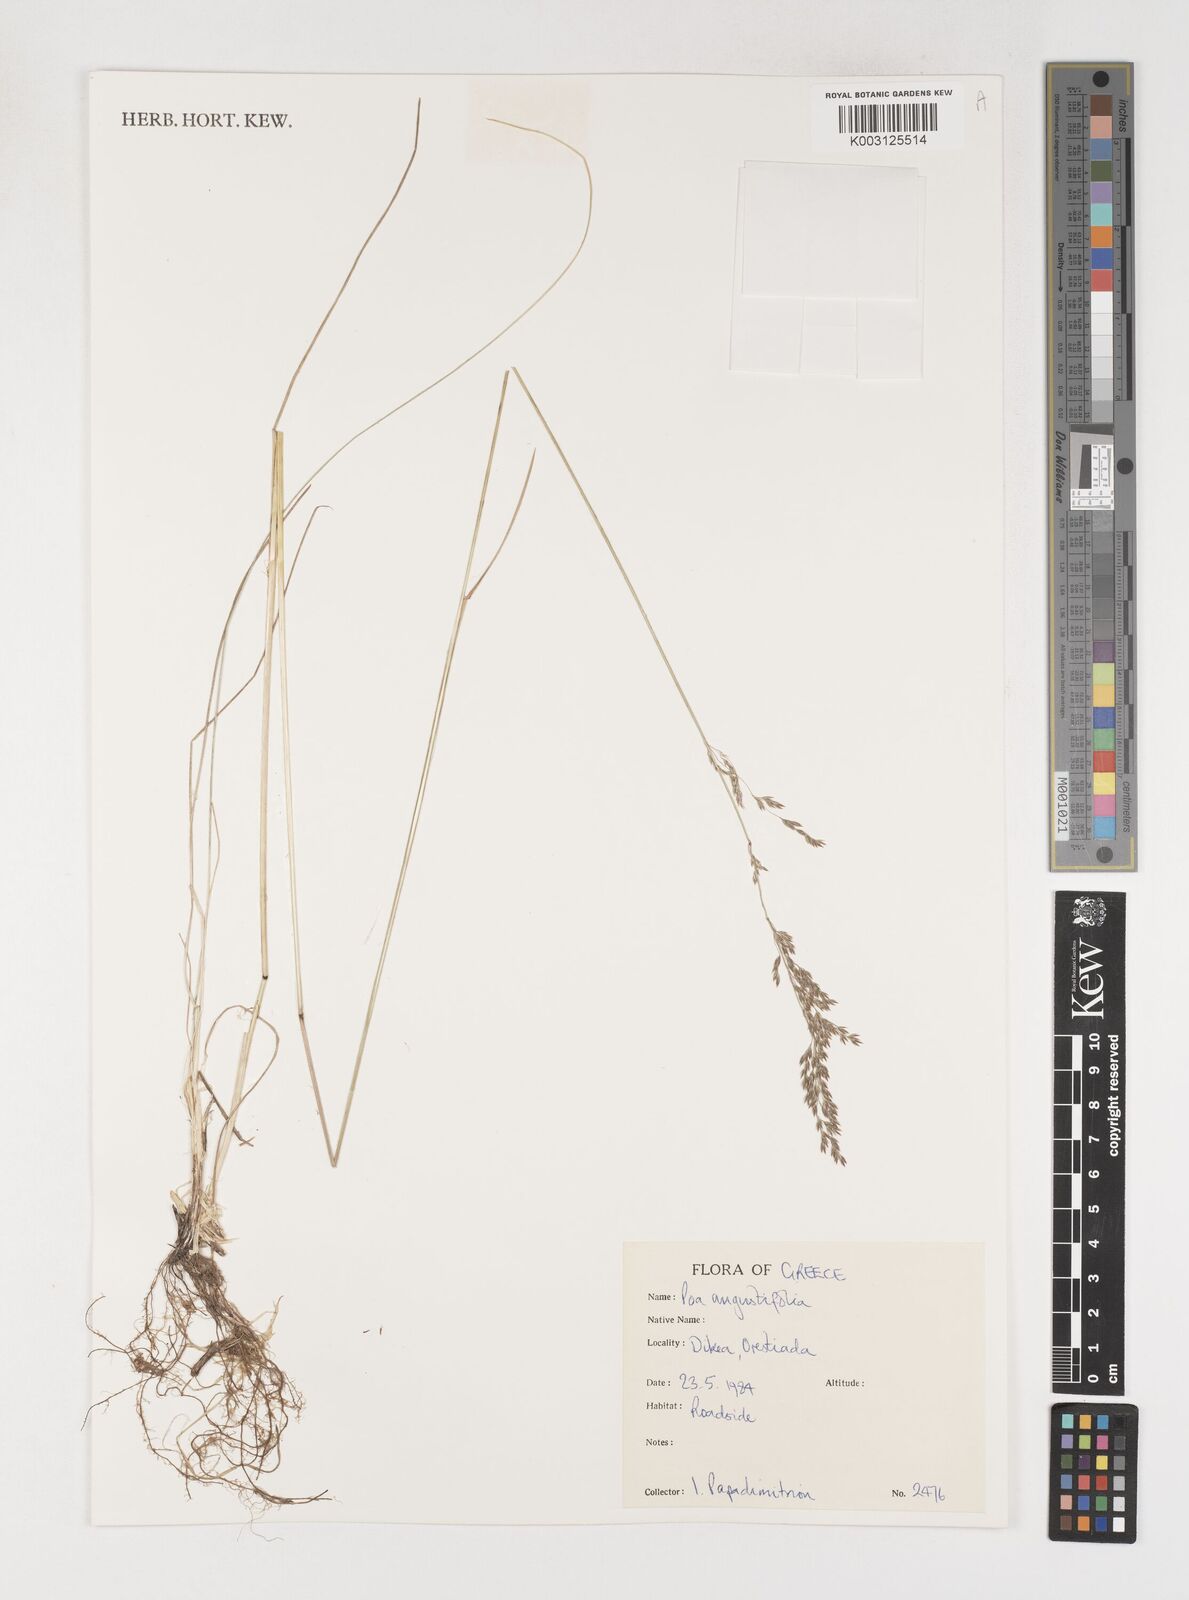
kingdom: Plantae
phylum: Tracheophyta
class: Liliopsida
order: Poales
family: Poaceae
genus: Poa
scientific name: Poa angustifolia
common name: Narrow-leaved meadow-grass
